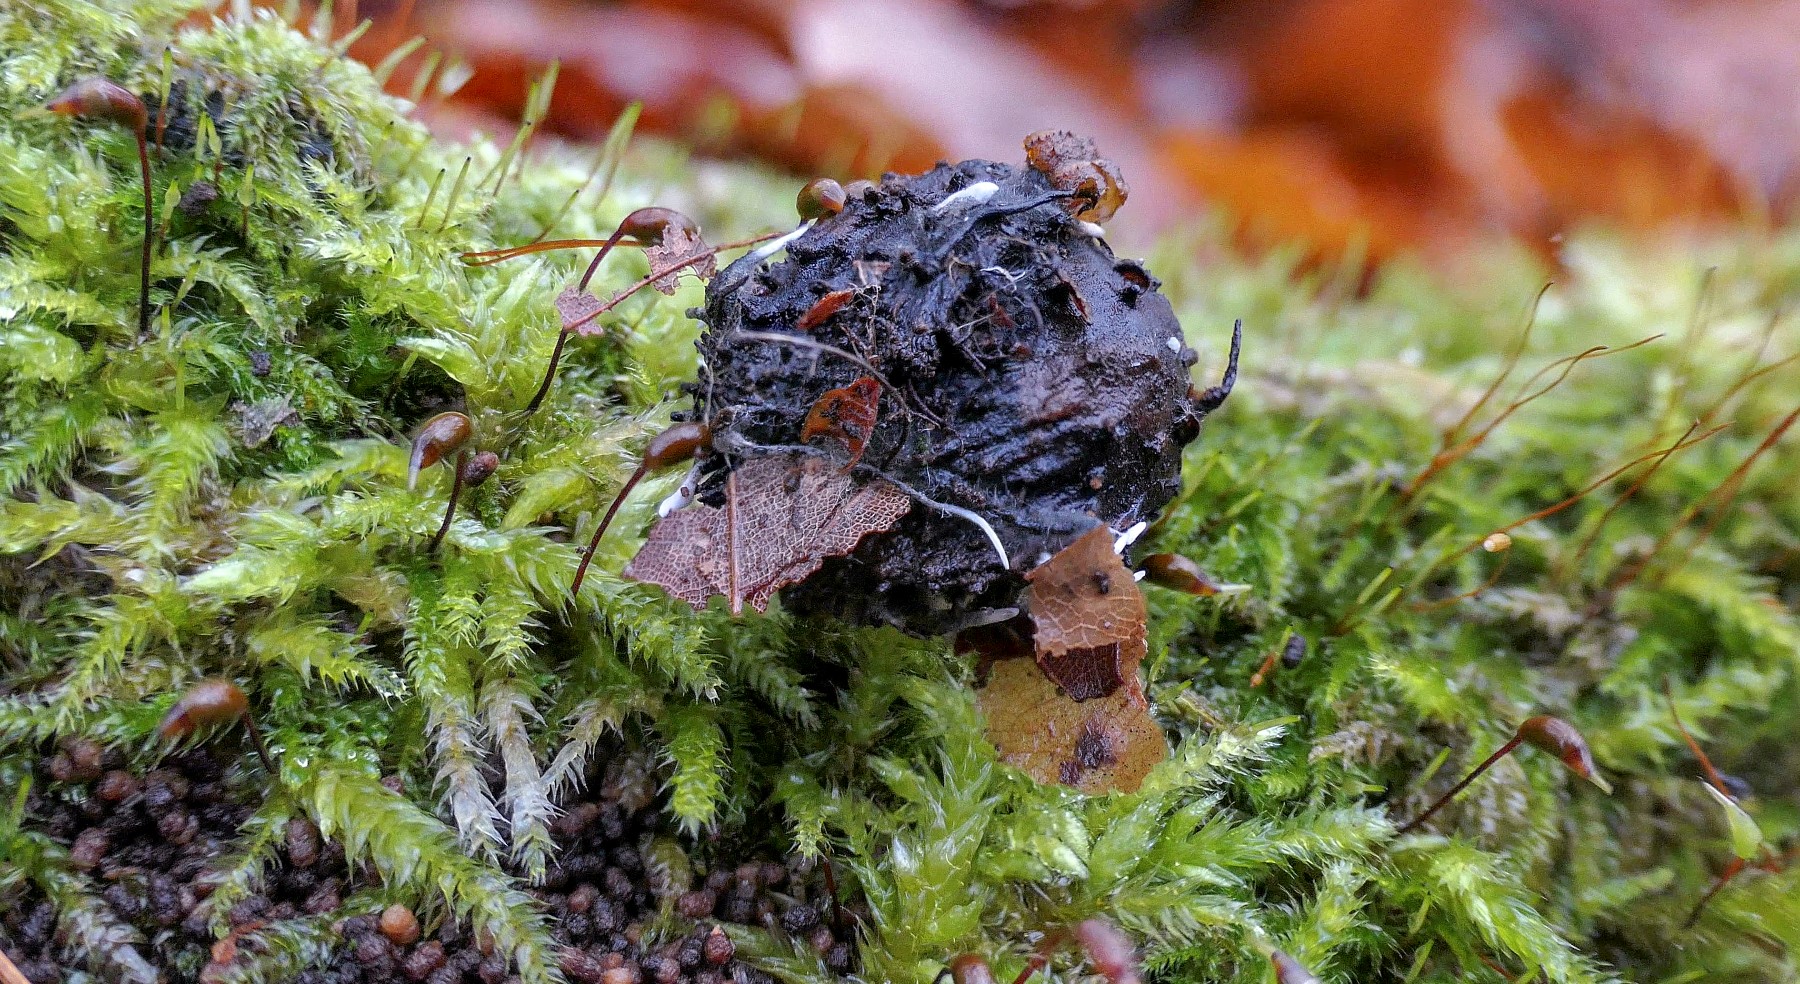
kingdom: Fungi
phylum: Ascomycota
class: Sordariomycetes
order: Xylariales
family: Xylariaceae
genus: Xylaria
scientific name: Xylaria carpophila
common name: bogskål-stødsvamp
